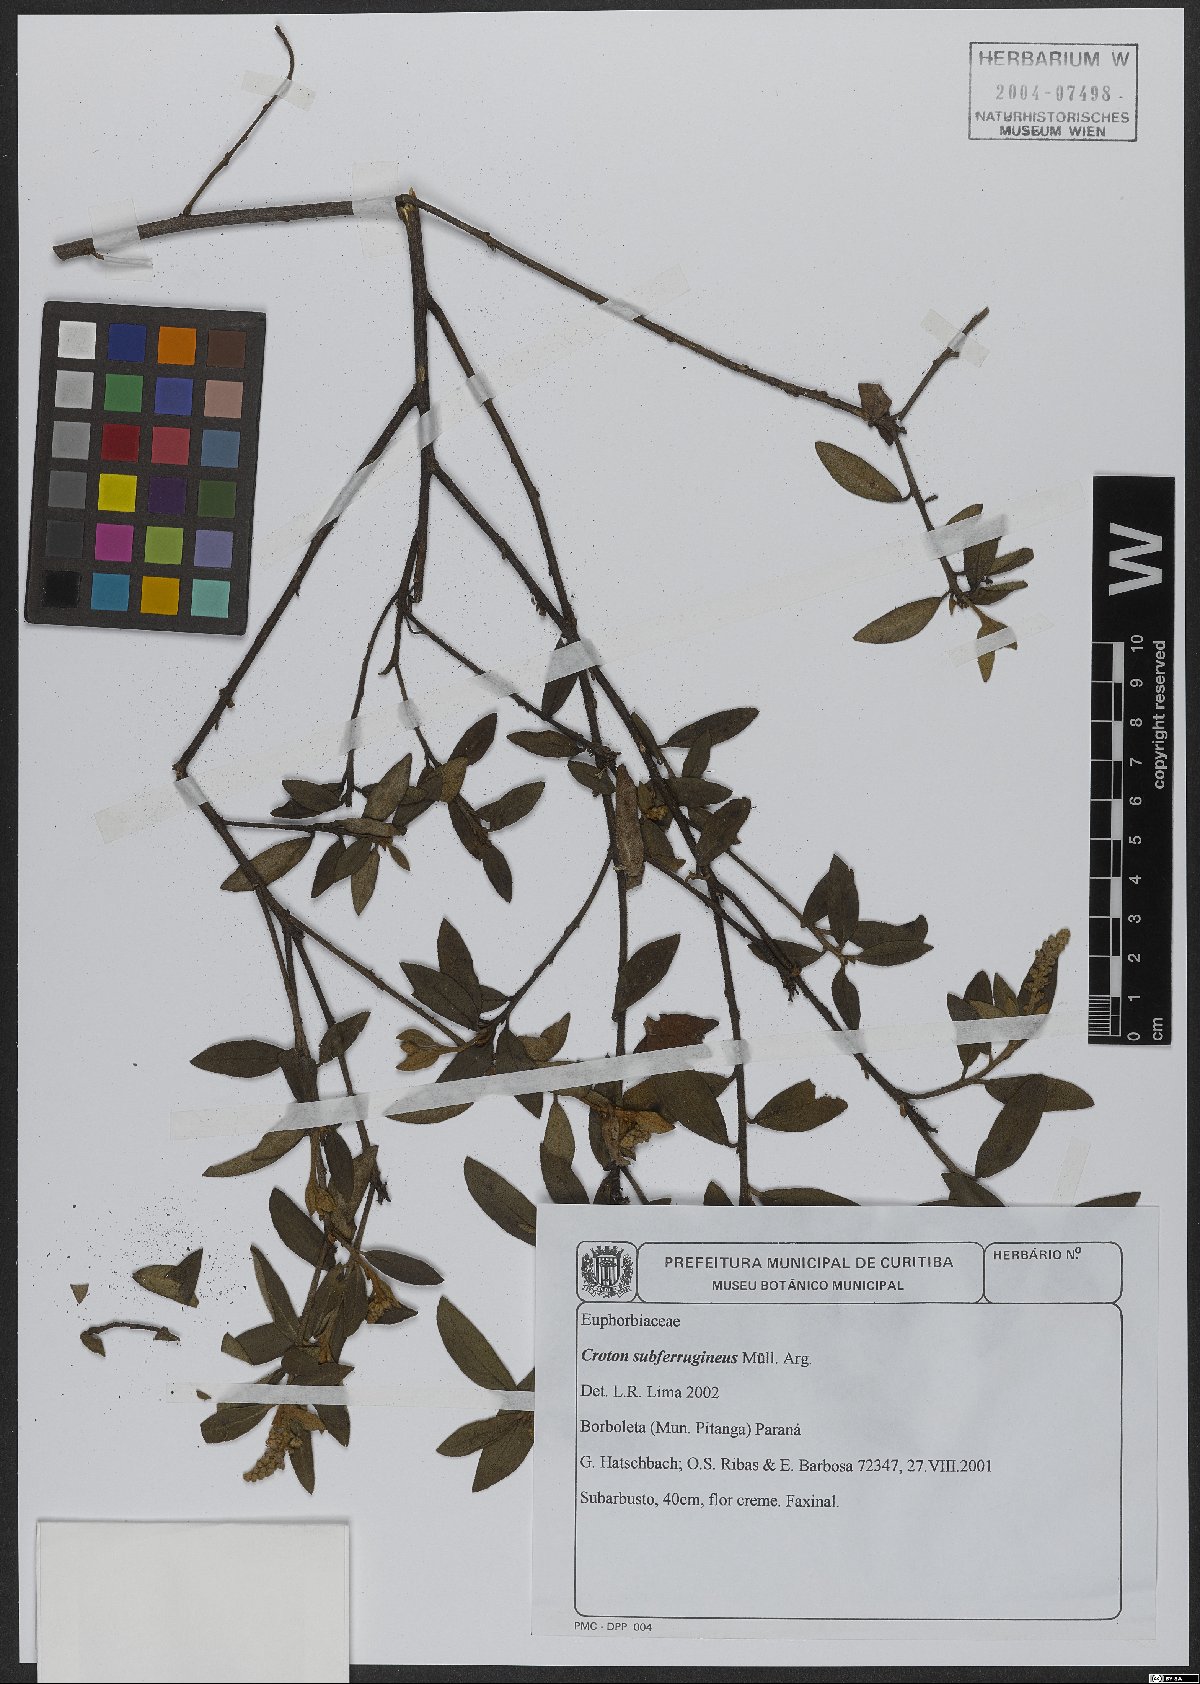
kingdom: Plantae
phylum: Tracheophyta
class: Magnoliopsida
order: Malpighiales
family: Euphorbiaceae
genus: Croton
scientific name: Croton subferrugineus
